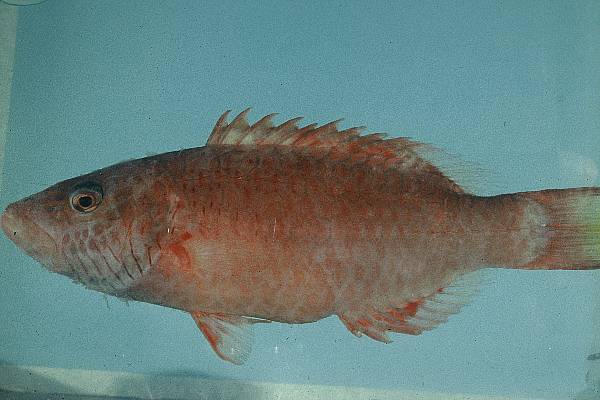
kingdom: Animalia
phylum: Chordata
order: Perciformes
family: Labridae
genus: Oxycheilinus
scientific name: Oxycheilinus digramma
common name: Bandcheek wrasse
